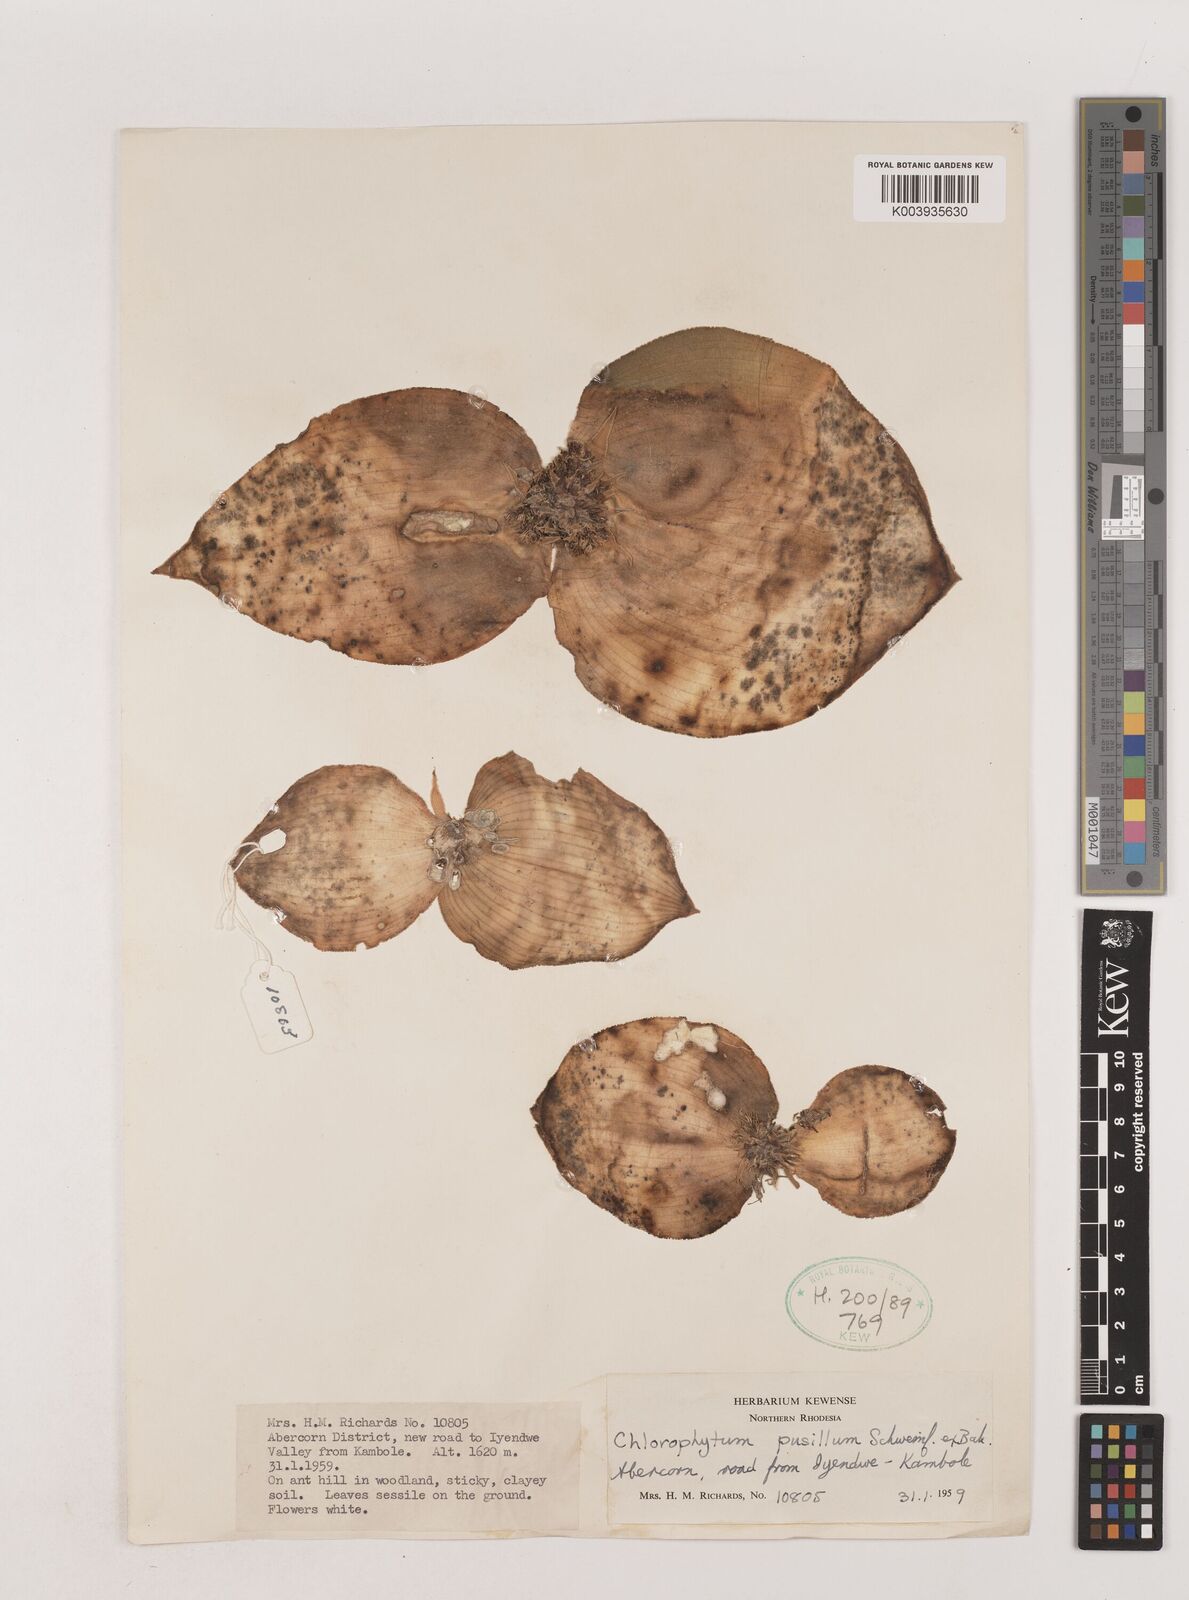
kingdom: Plantae
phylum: Tracheophyta
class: Liliopsida
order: Asparagales
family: Asparagaceae
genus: Chlorophytum
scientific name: Chlorophytum pusillum
